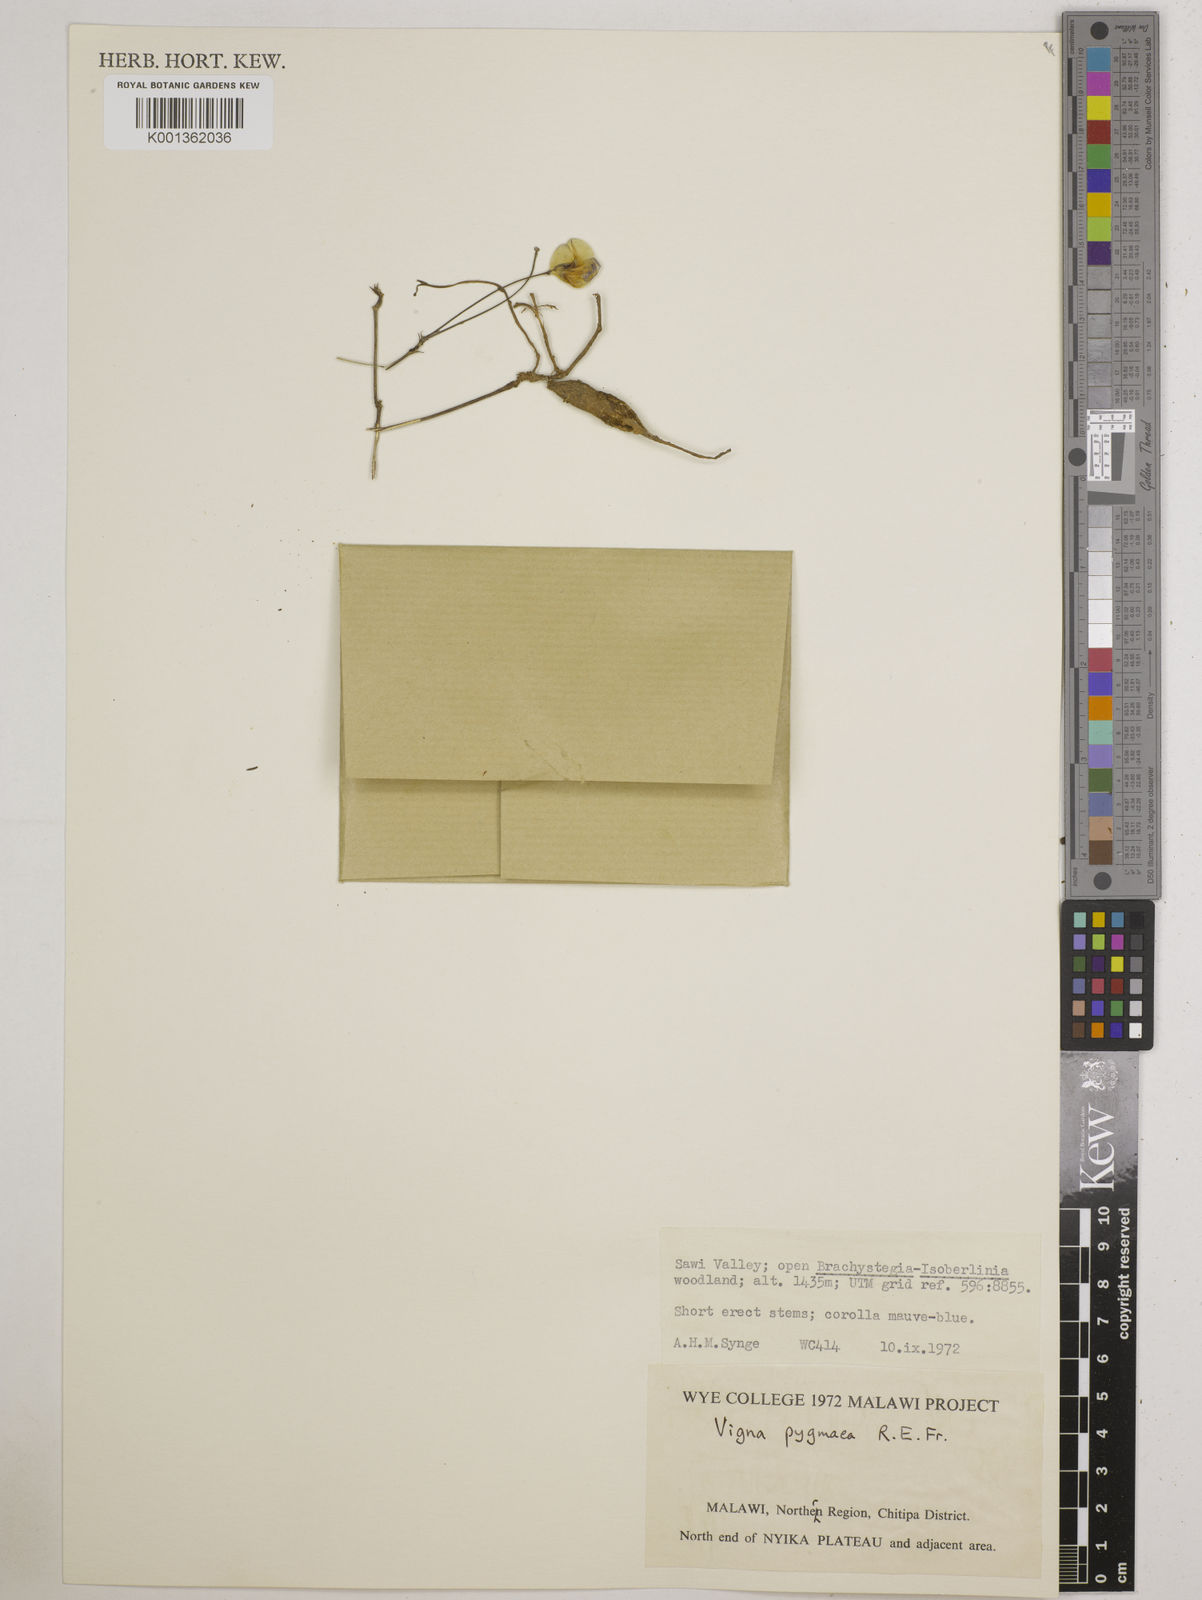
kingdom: Plantae
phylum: Tracheophyta
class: Magnoliopsida
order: Fabales
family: Fabaceae
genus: Vigna
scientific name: Vigna pygmaea
